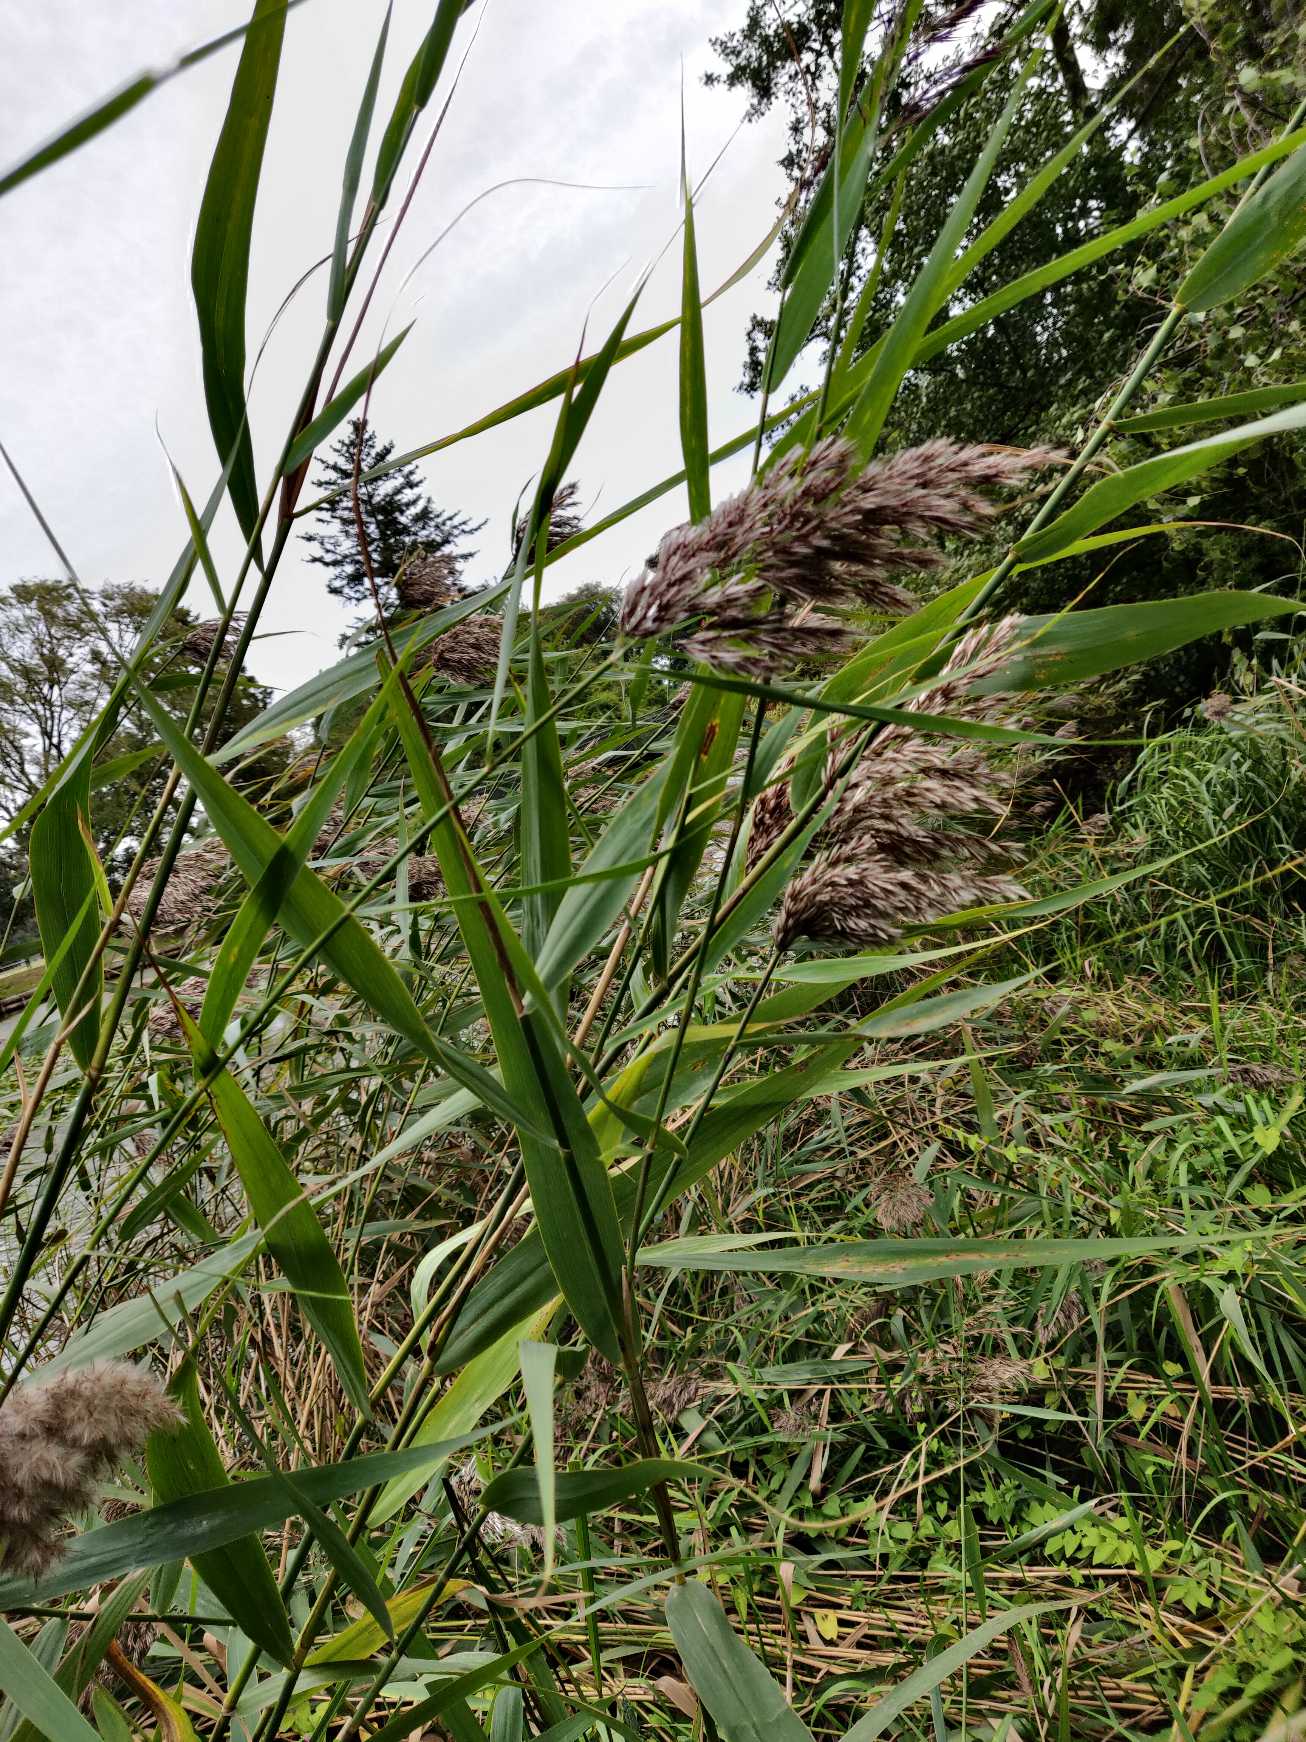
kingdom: Plantae
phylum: Tracheophyta
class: Liliopsida
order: Poales
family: Poaceae
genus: Phragmites
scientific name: Phragmites australis
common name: Tagrør
